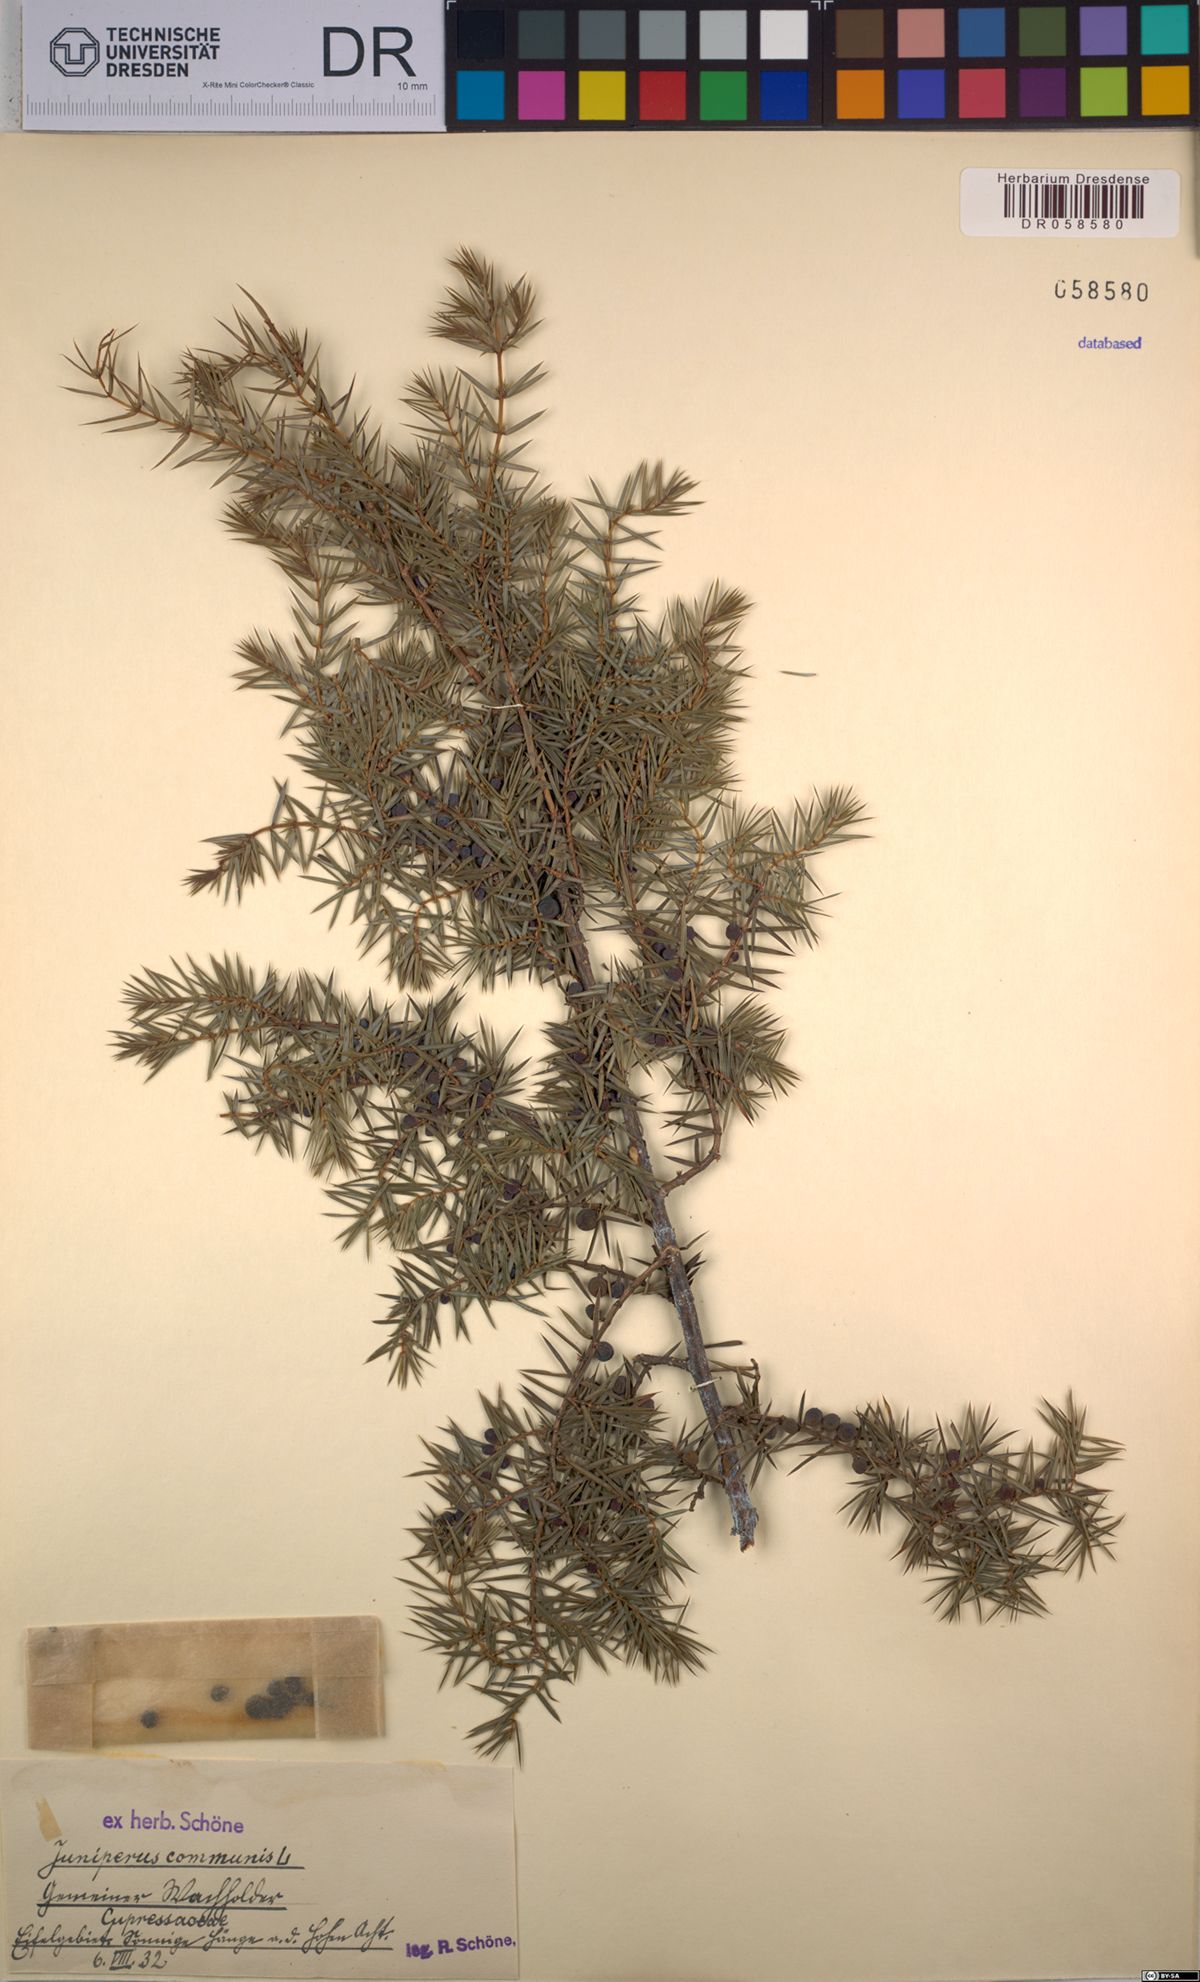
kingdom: Plantae
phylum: Tracheophyta
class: Pinopsida
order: Pinales
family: Cupressaceae
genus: Juniperus
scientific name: Juniperus communis
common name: Common juniper
